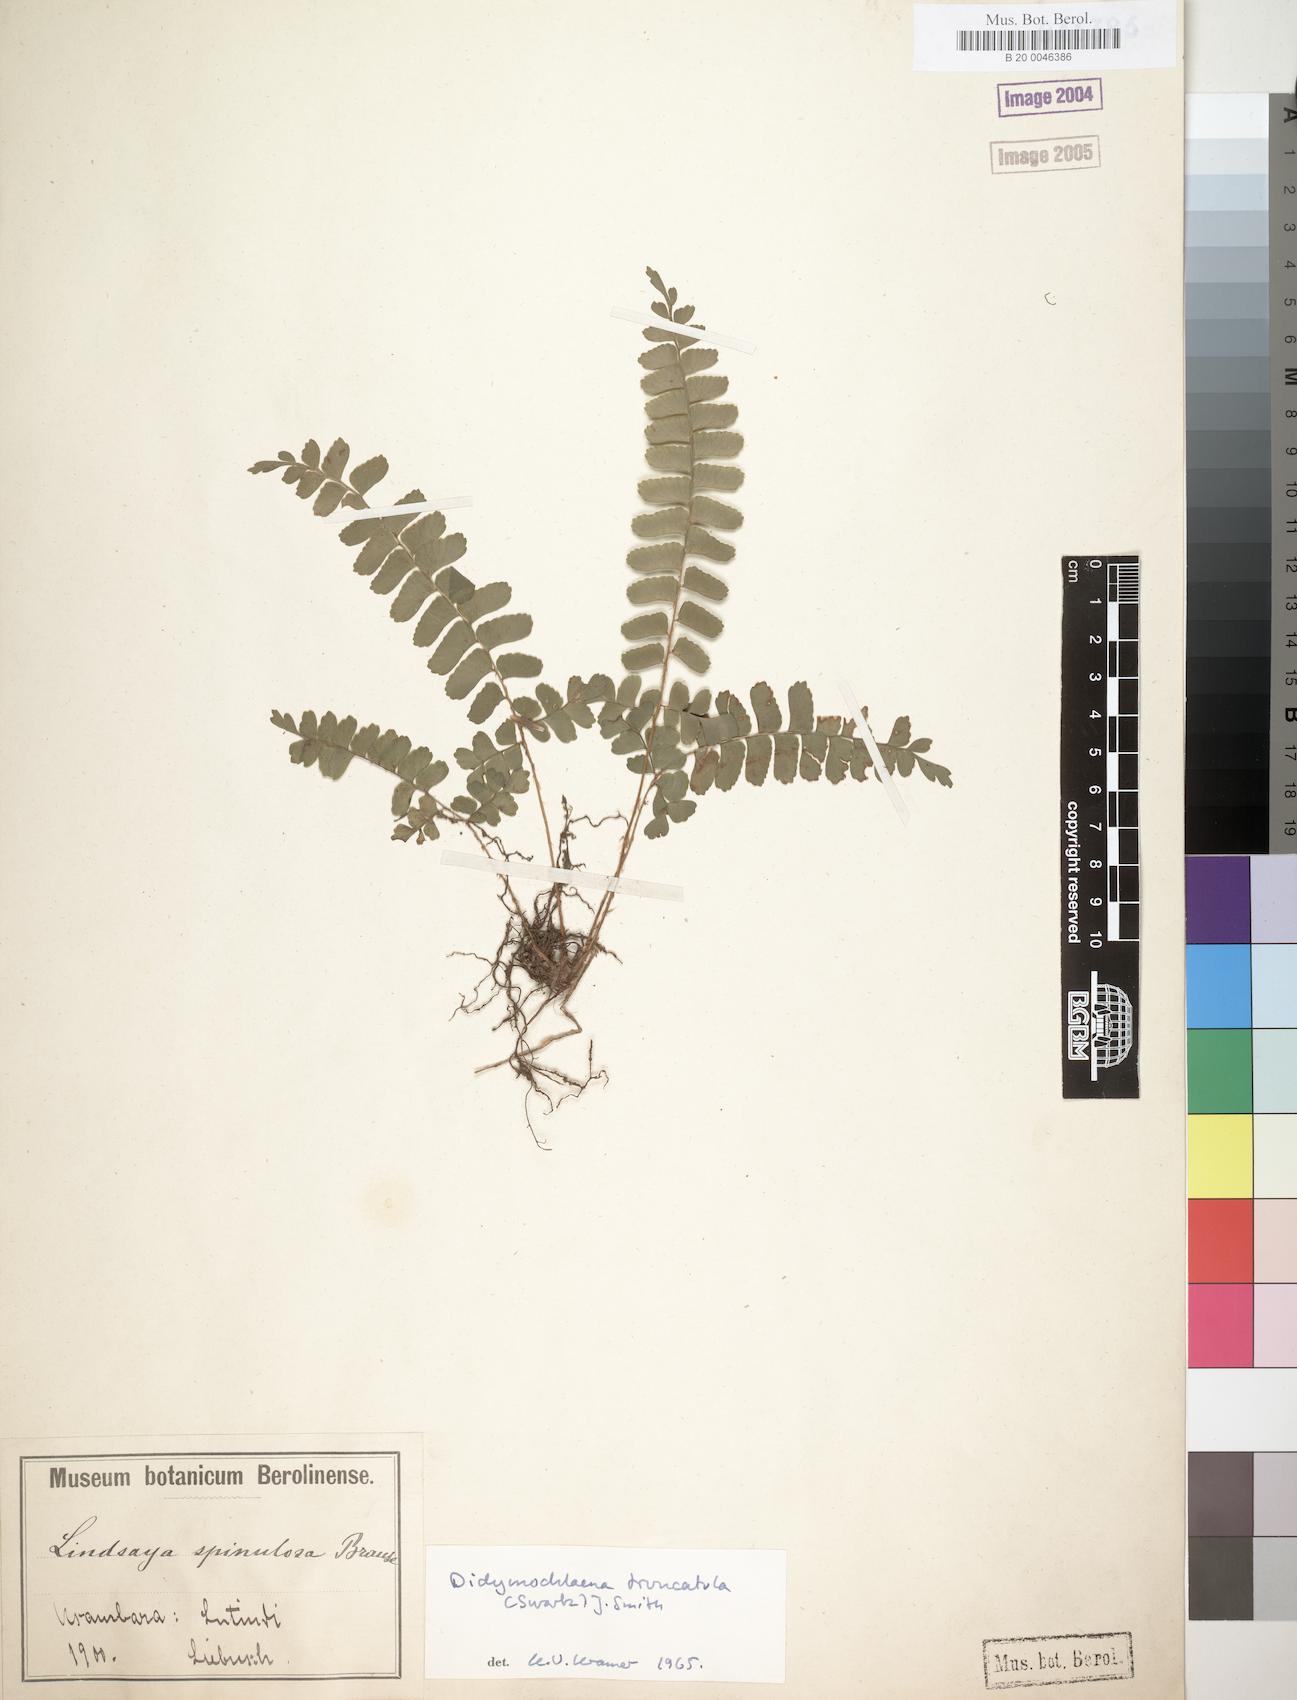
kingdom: Plantae
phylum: Tracheophyta
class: Polypodiopsida
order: Polypodiales
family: Didymochlaenaceae
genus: Didymochlaena
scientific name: Didymochlaena truncatula
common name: Mahogany fern
